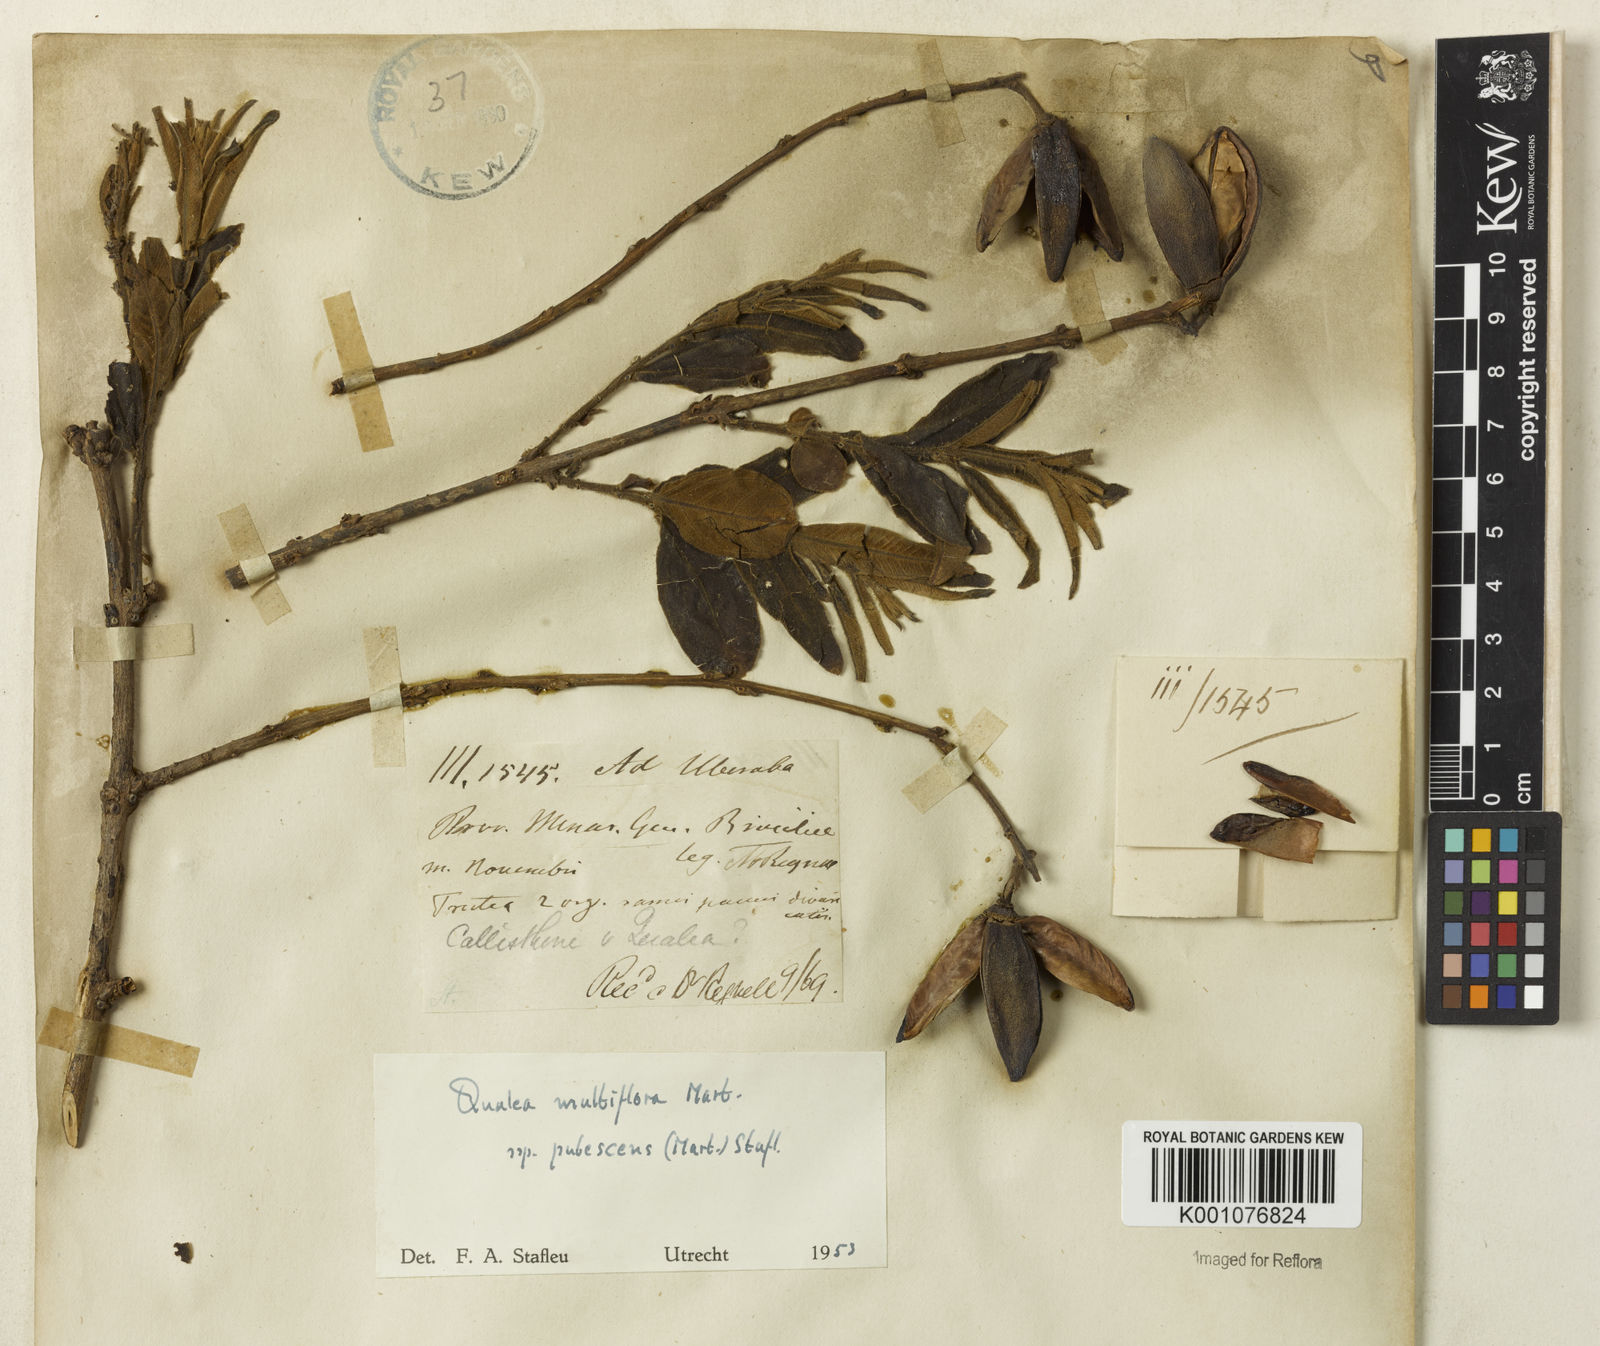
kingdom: Plantae
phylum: Tracheophyta
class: Magnoliopsida
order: Myrtales
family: Vochysiaceae
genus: Qualea
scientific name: Qualea multiflora
